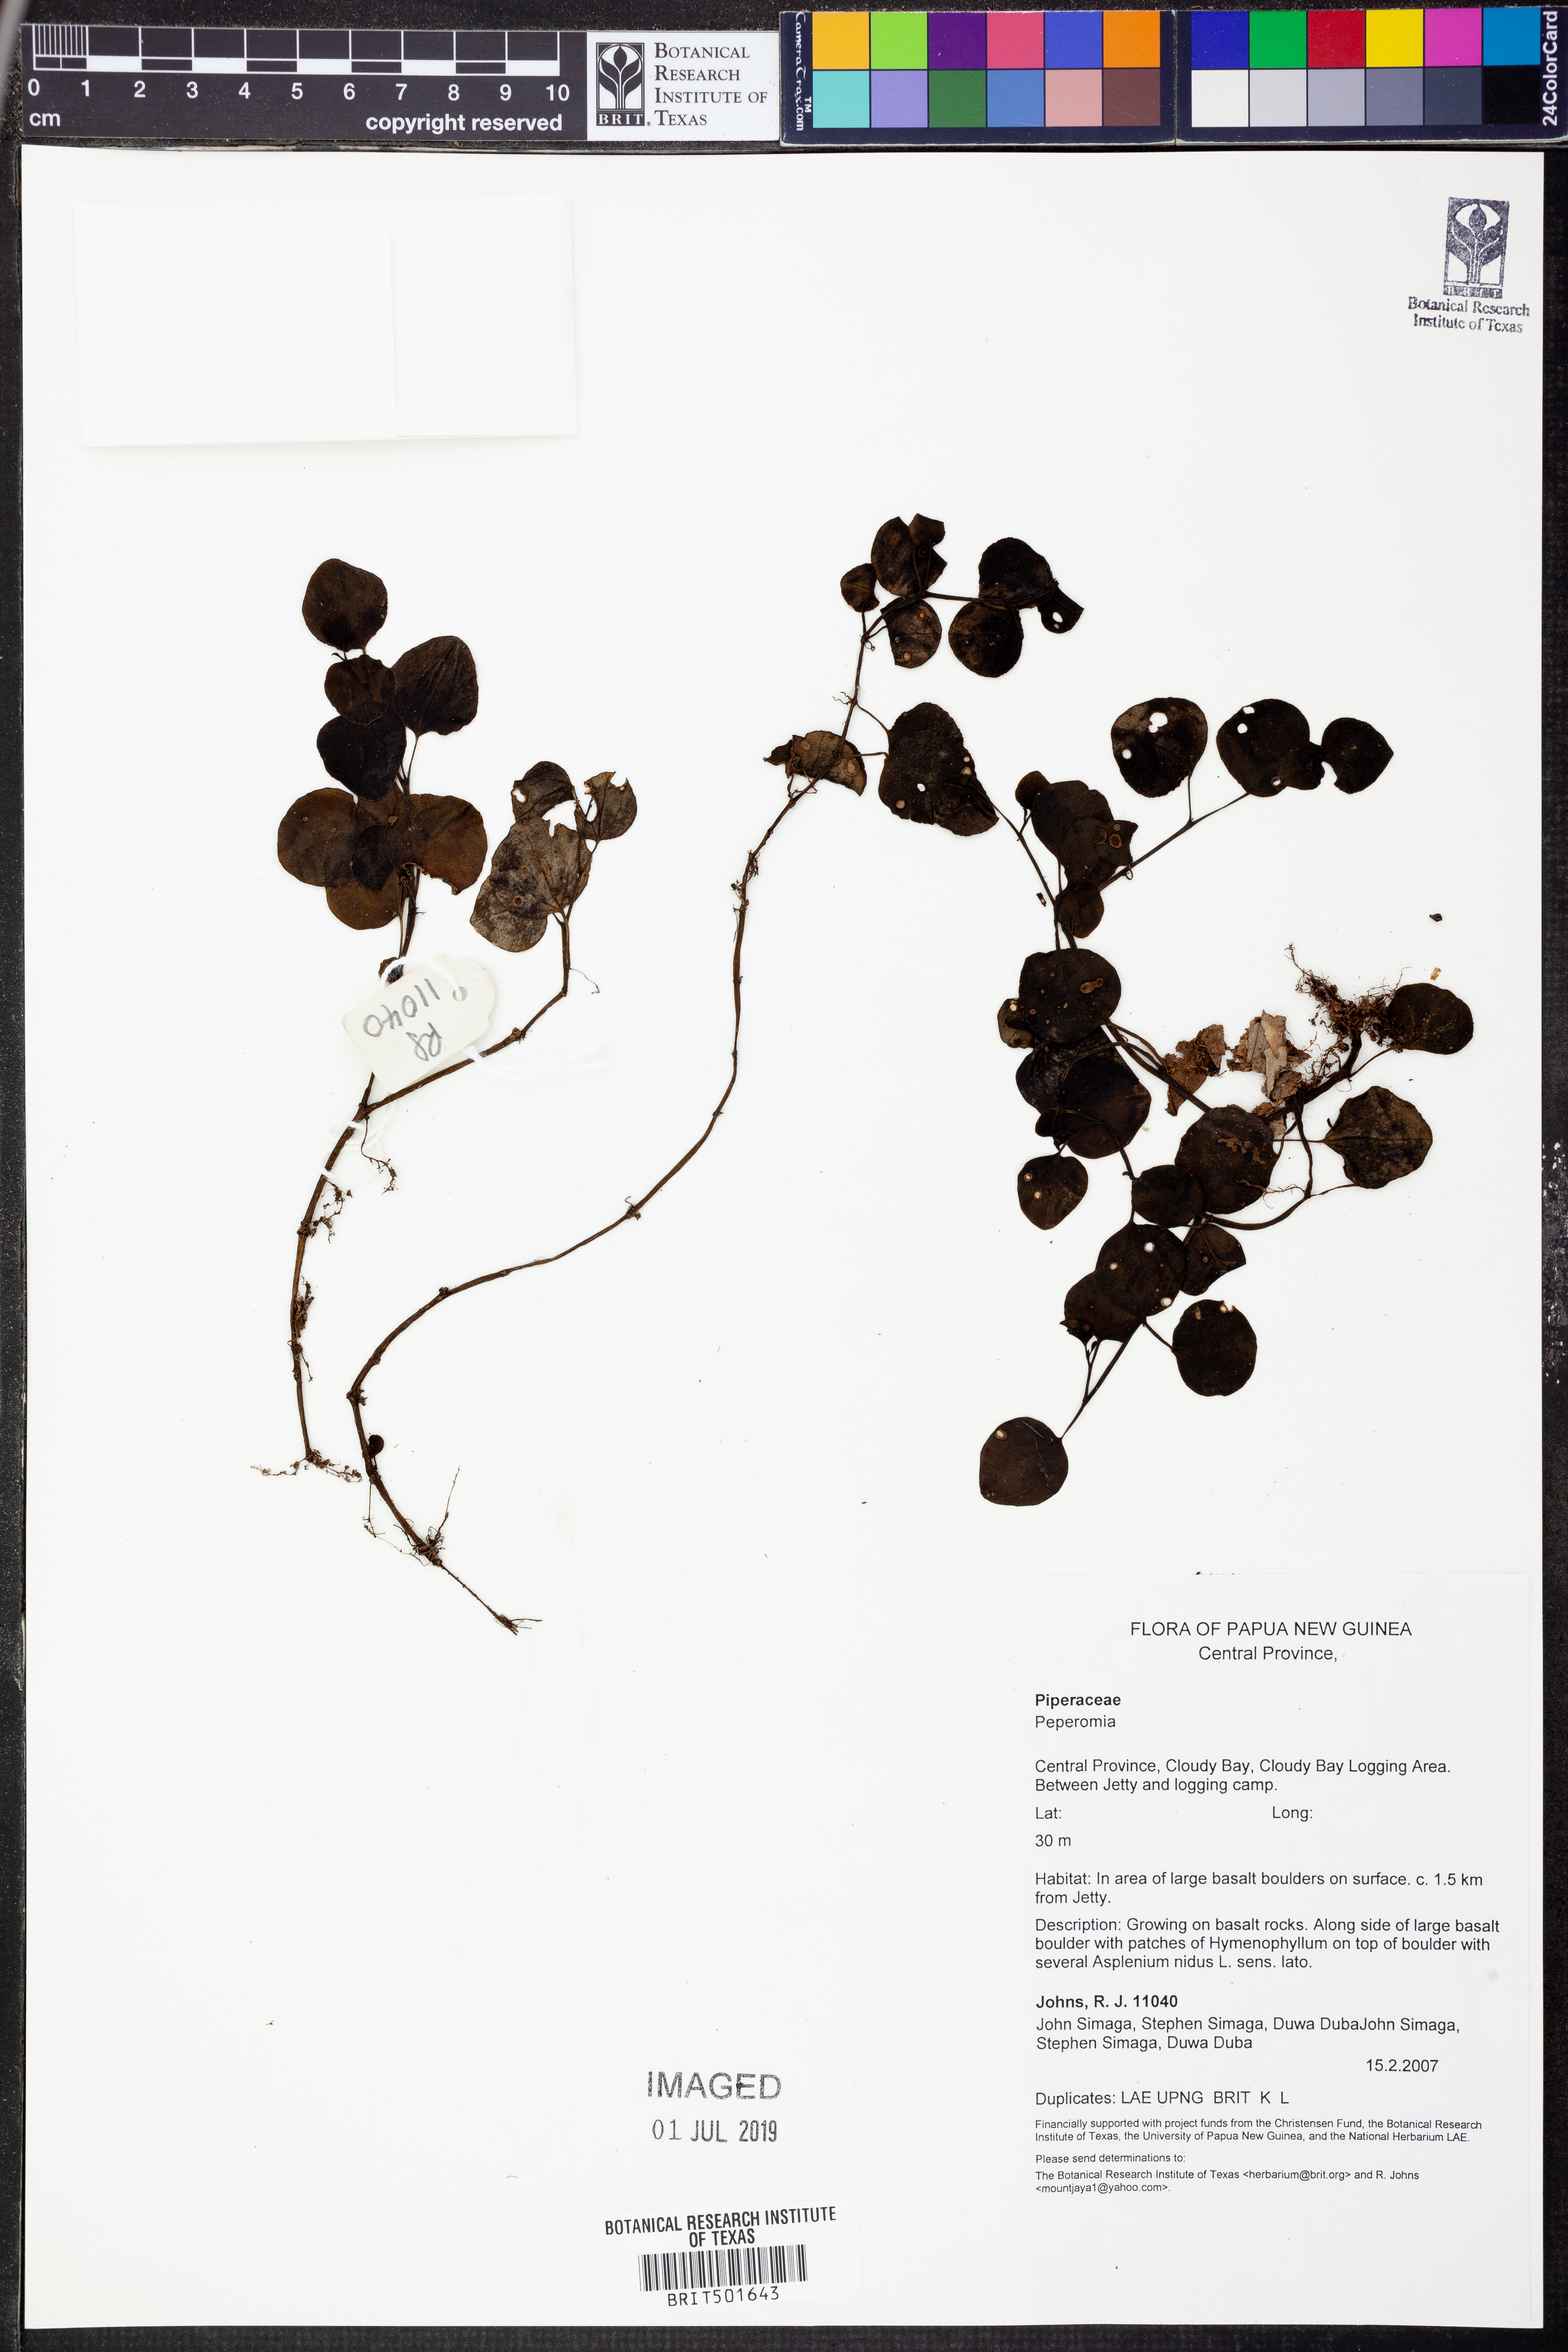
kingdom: Plantae
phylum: Tracheophyta
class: Magnoliopsida
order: Piperales
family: Piperaceae
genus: Peperomia
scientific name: Peperomia
